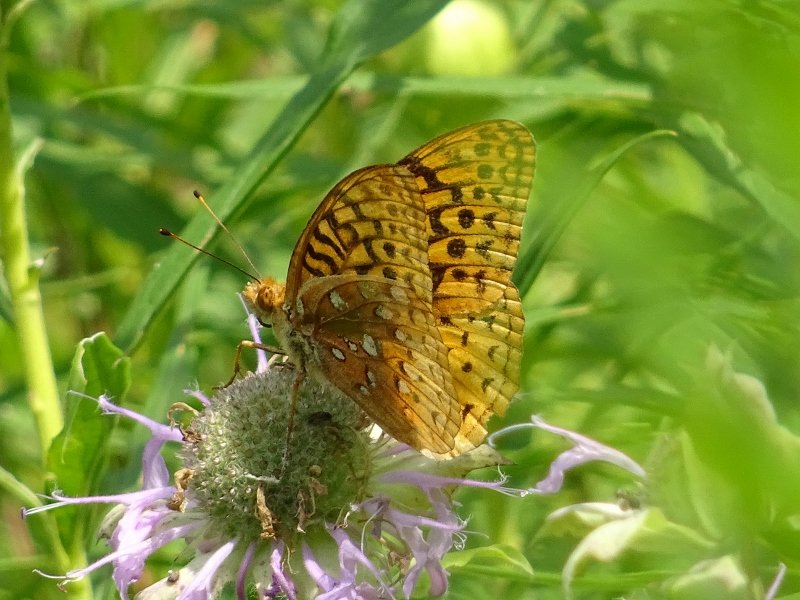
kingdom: Animalia
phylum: Arthropoda
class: Insecta
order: Lepidoptera
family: Nymphalidae
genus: Speyeria
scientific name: Speyeria cybele
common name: Great Spangled Fritillary
